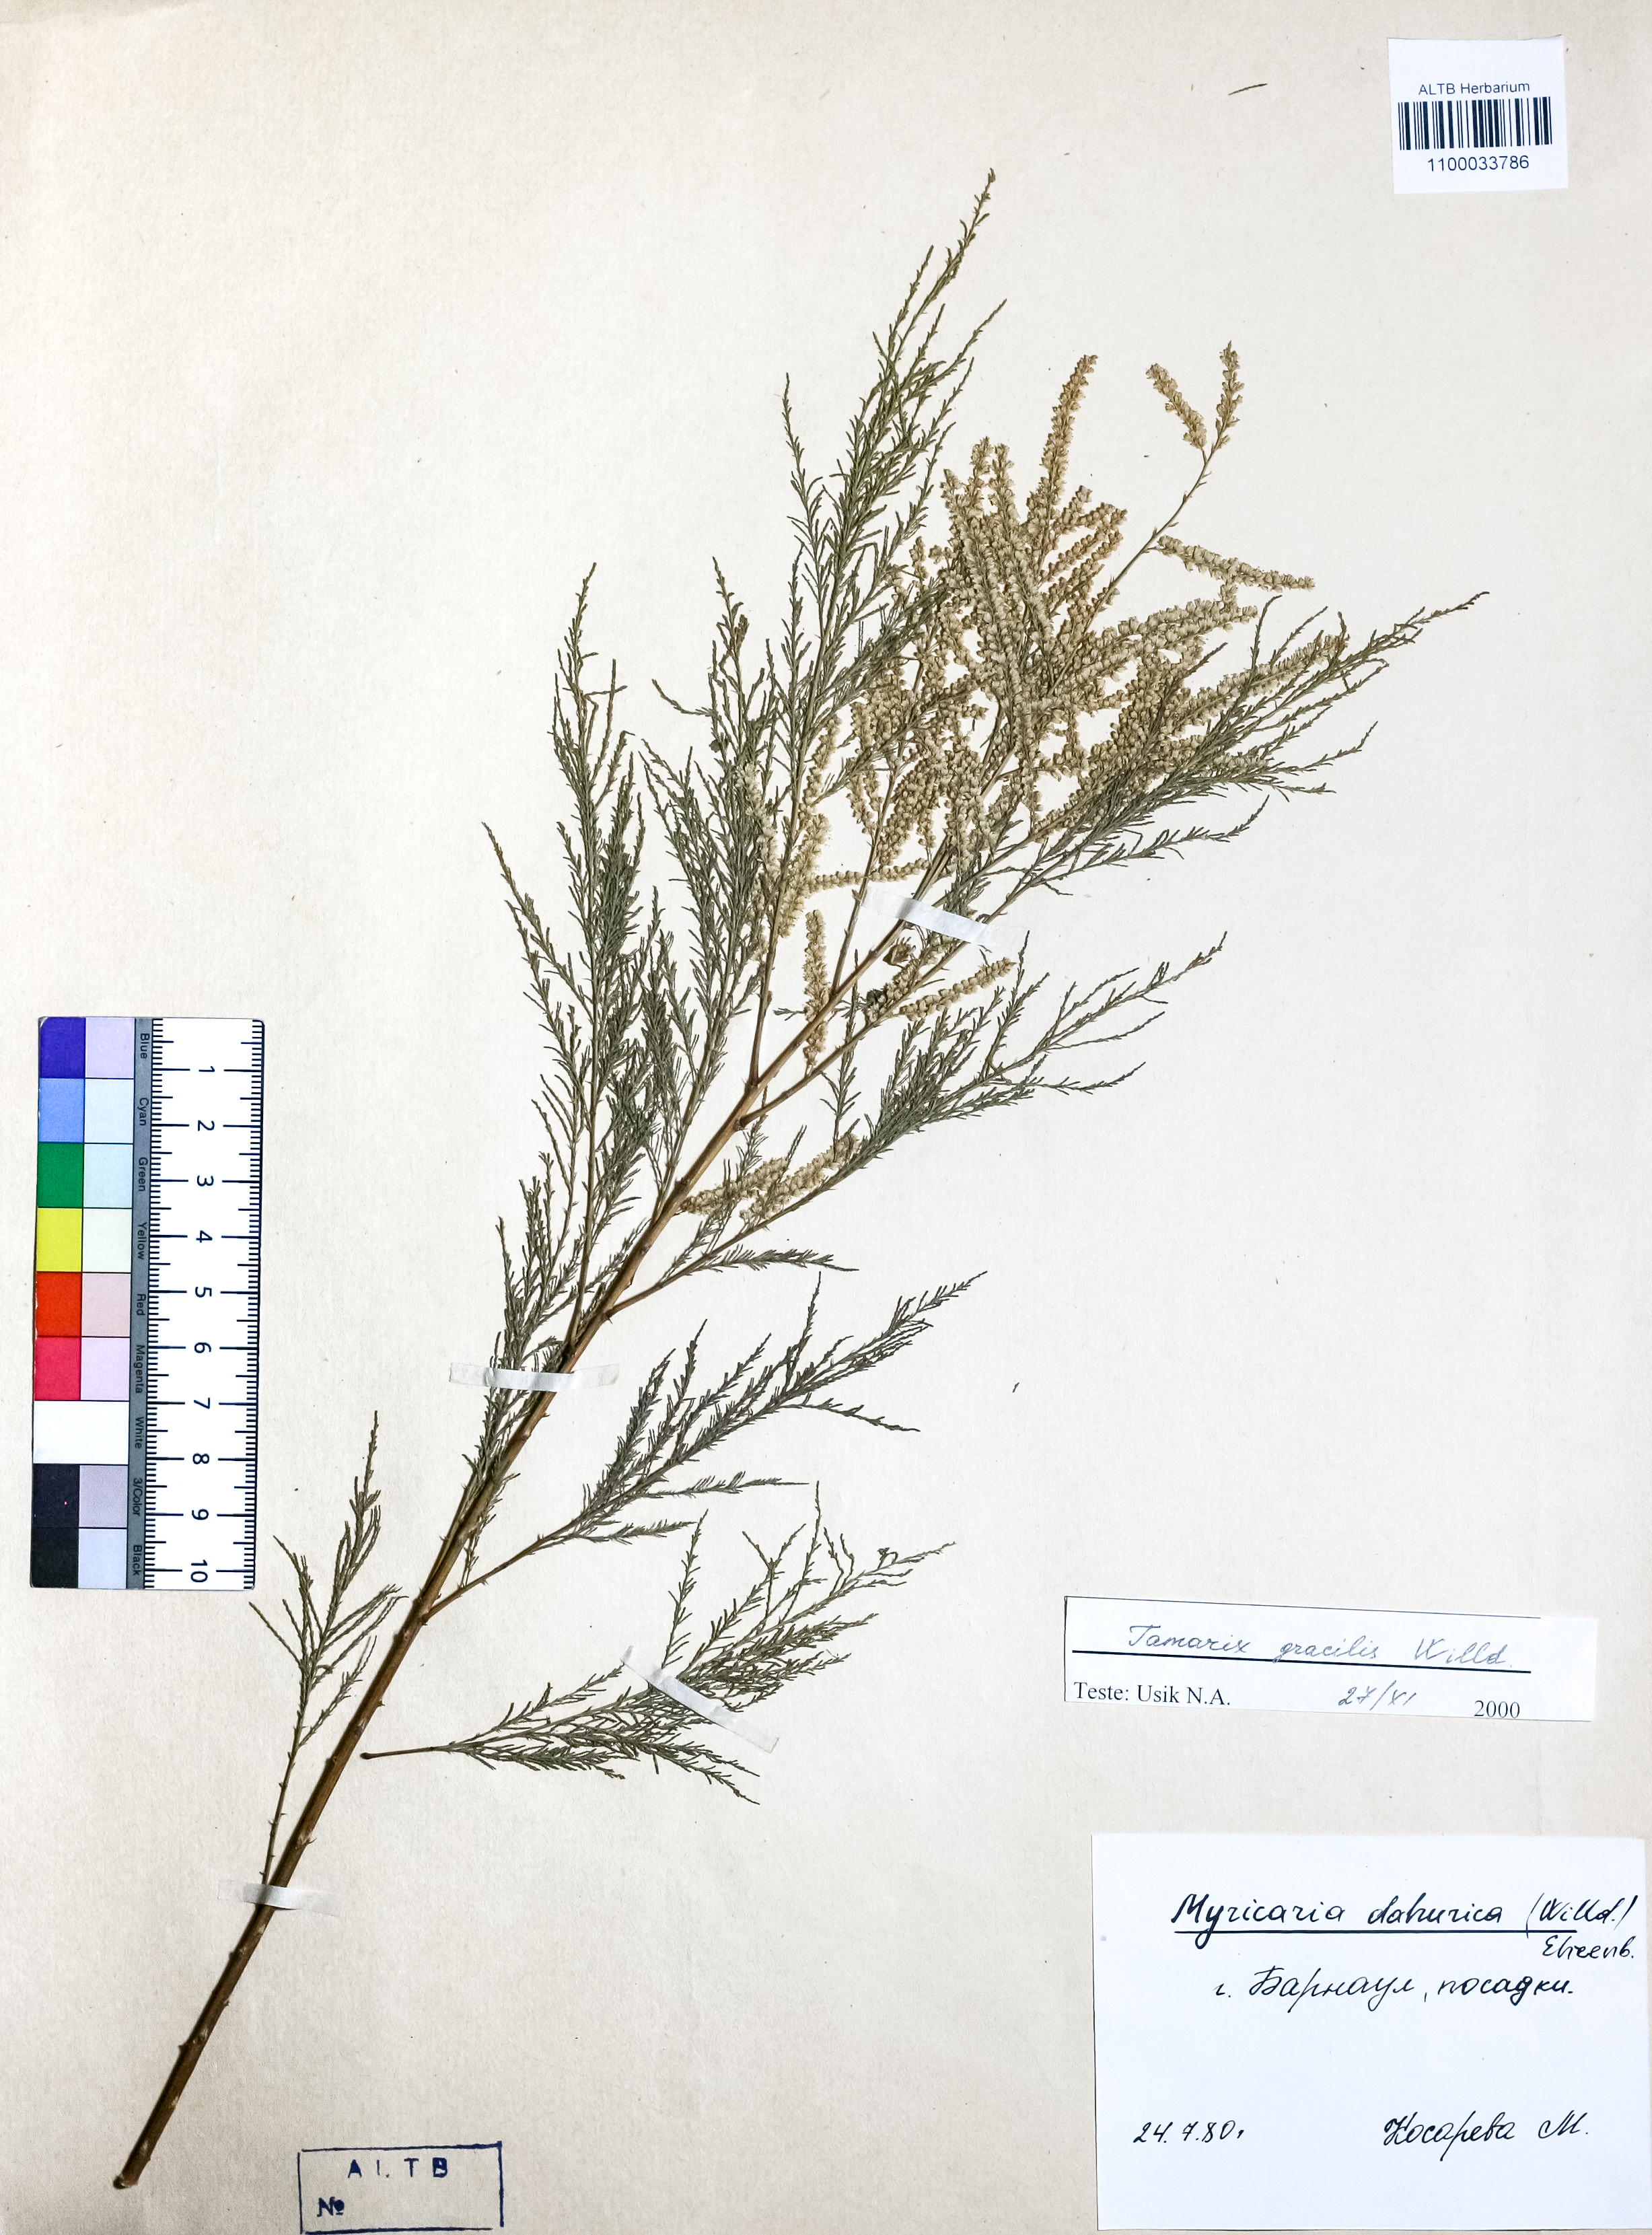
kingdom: Plantae
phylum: Tracheophyta
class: Magnoliopsida
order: Caryophyllales
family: Tamaricaceae
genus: Tamarix
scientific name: Tamarix gracilis
